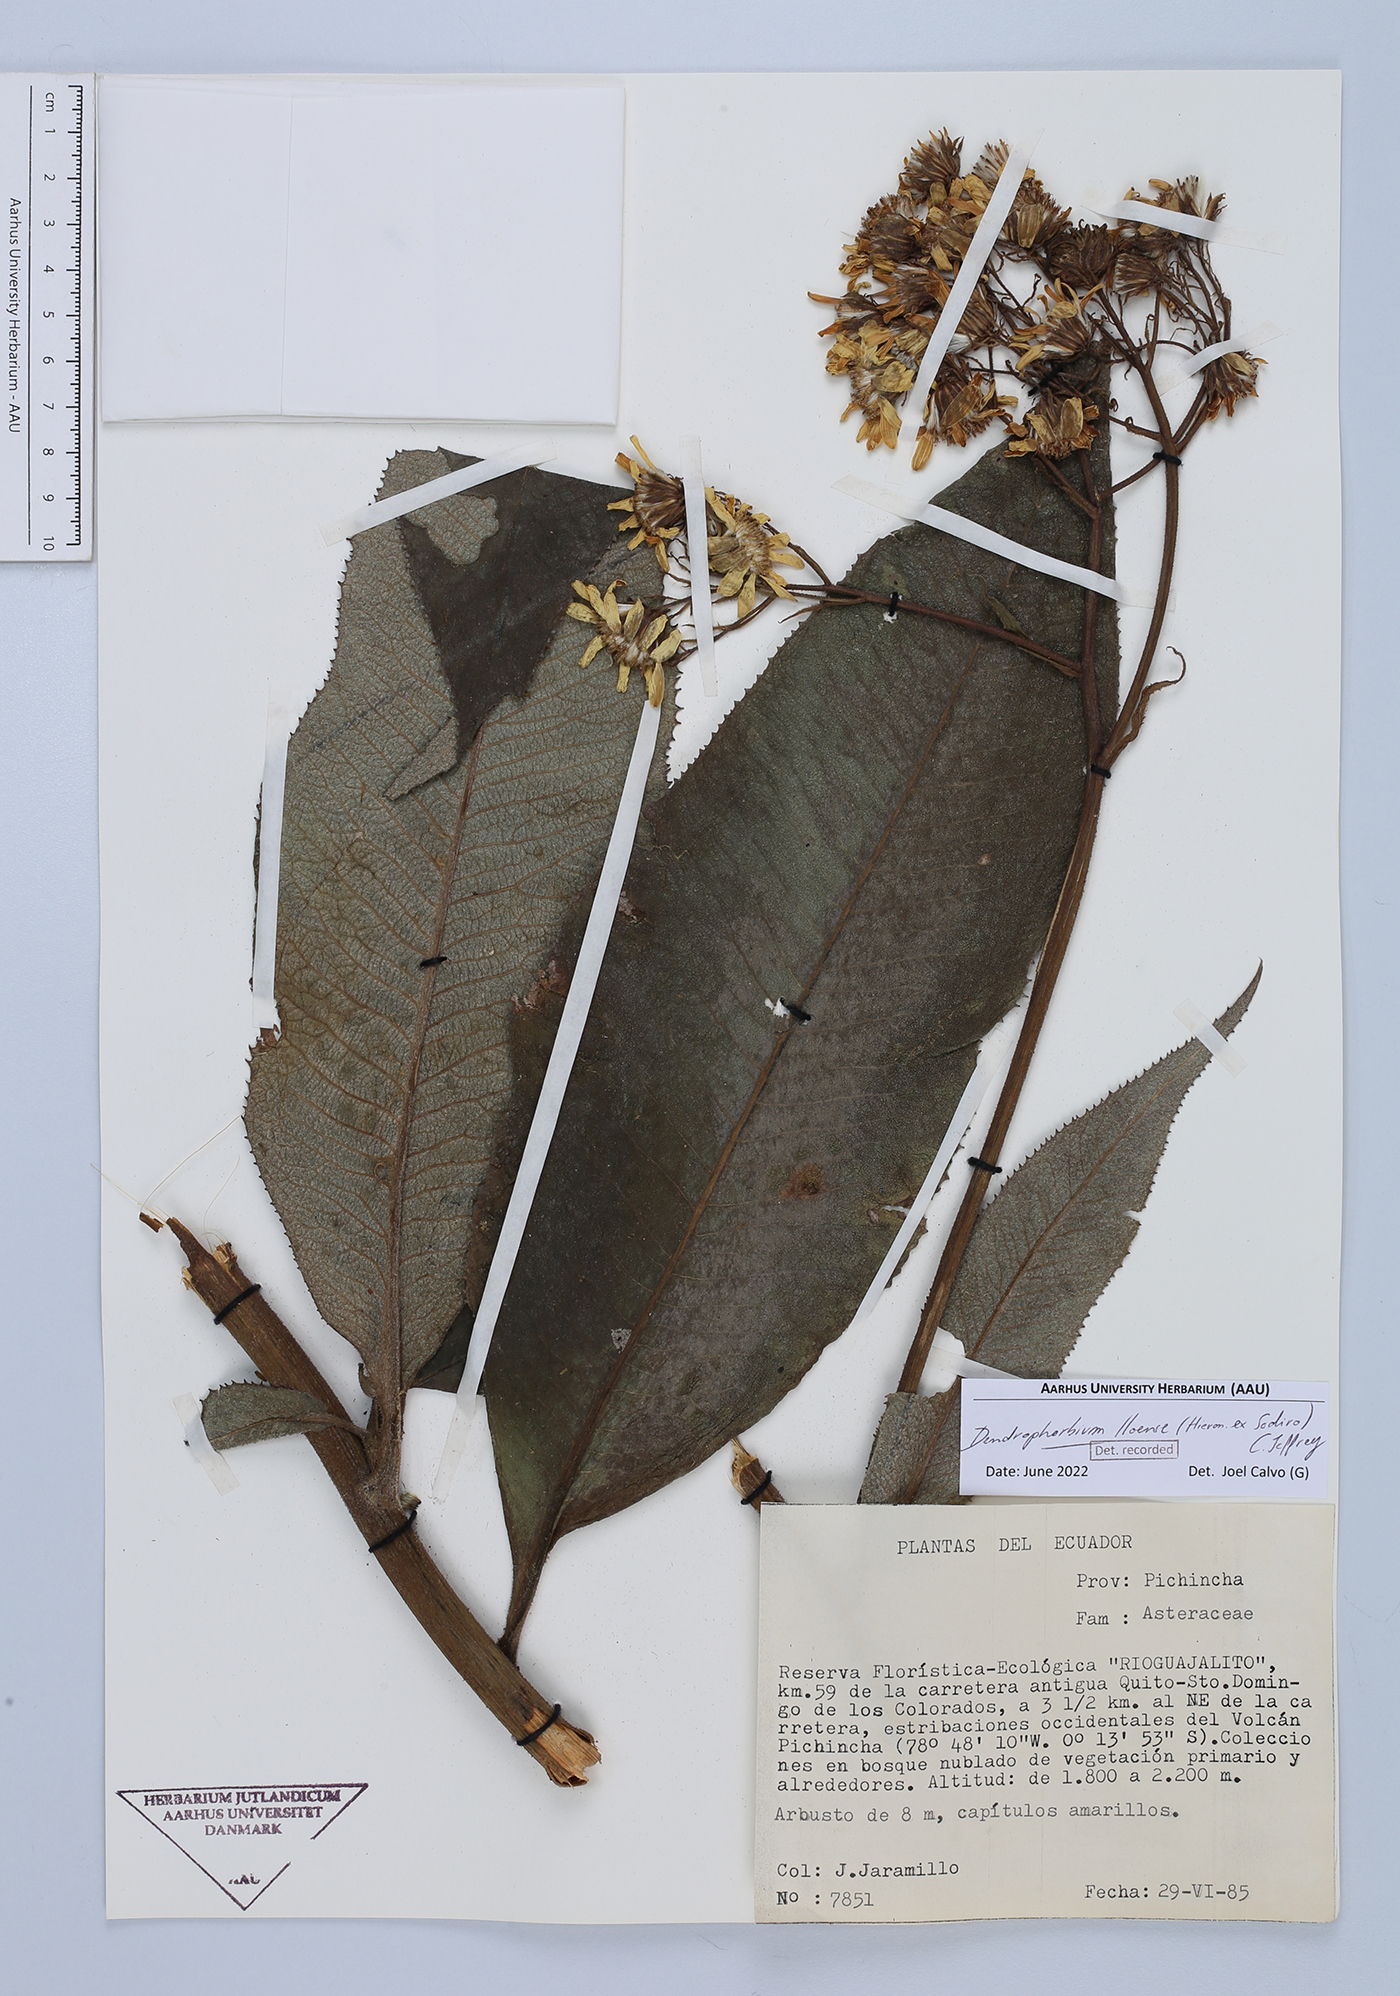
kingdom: Plantae
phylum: Tracheophyta
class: Magnoliopsida
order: Asterales
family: Asteraceae
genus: Dendrophorbium
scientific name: Dendrophorbium lloense
